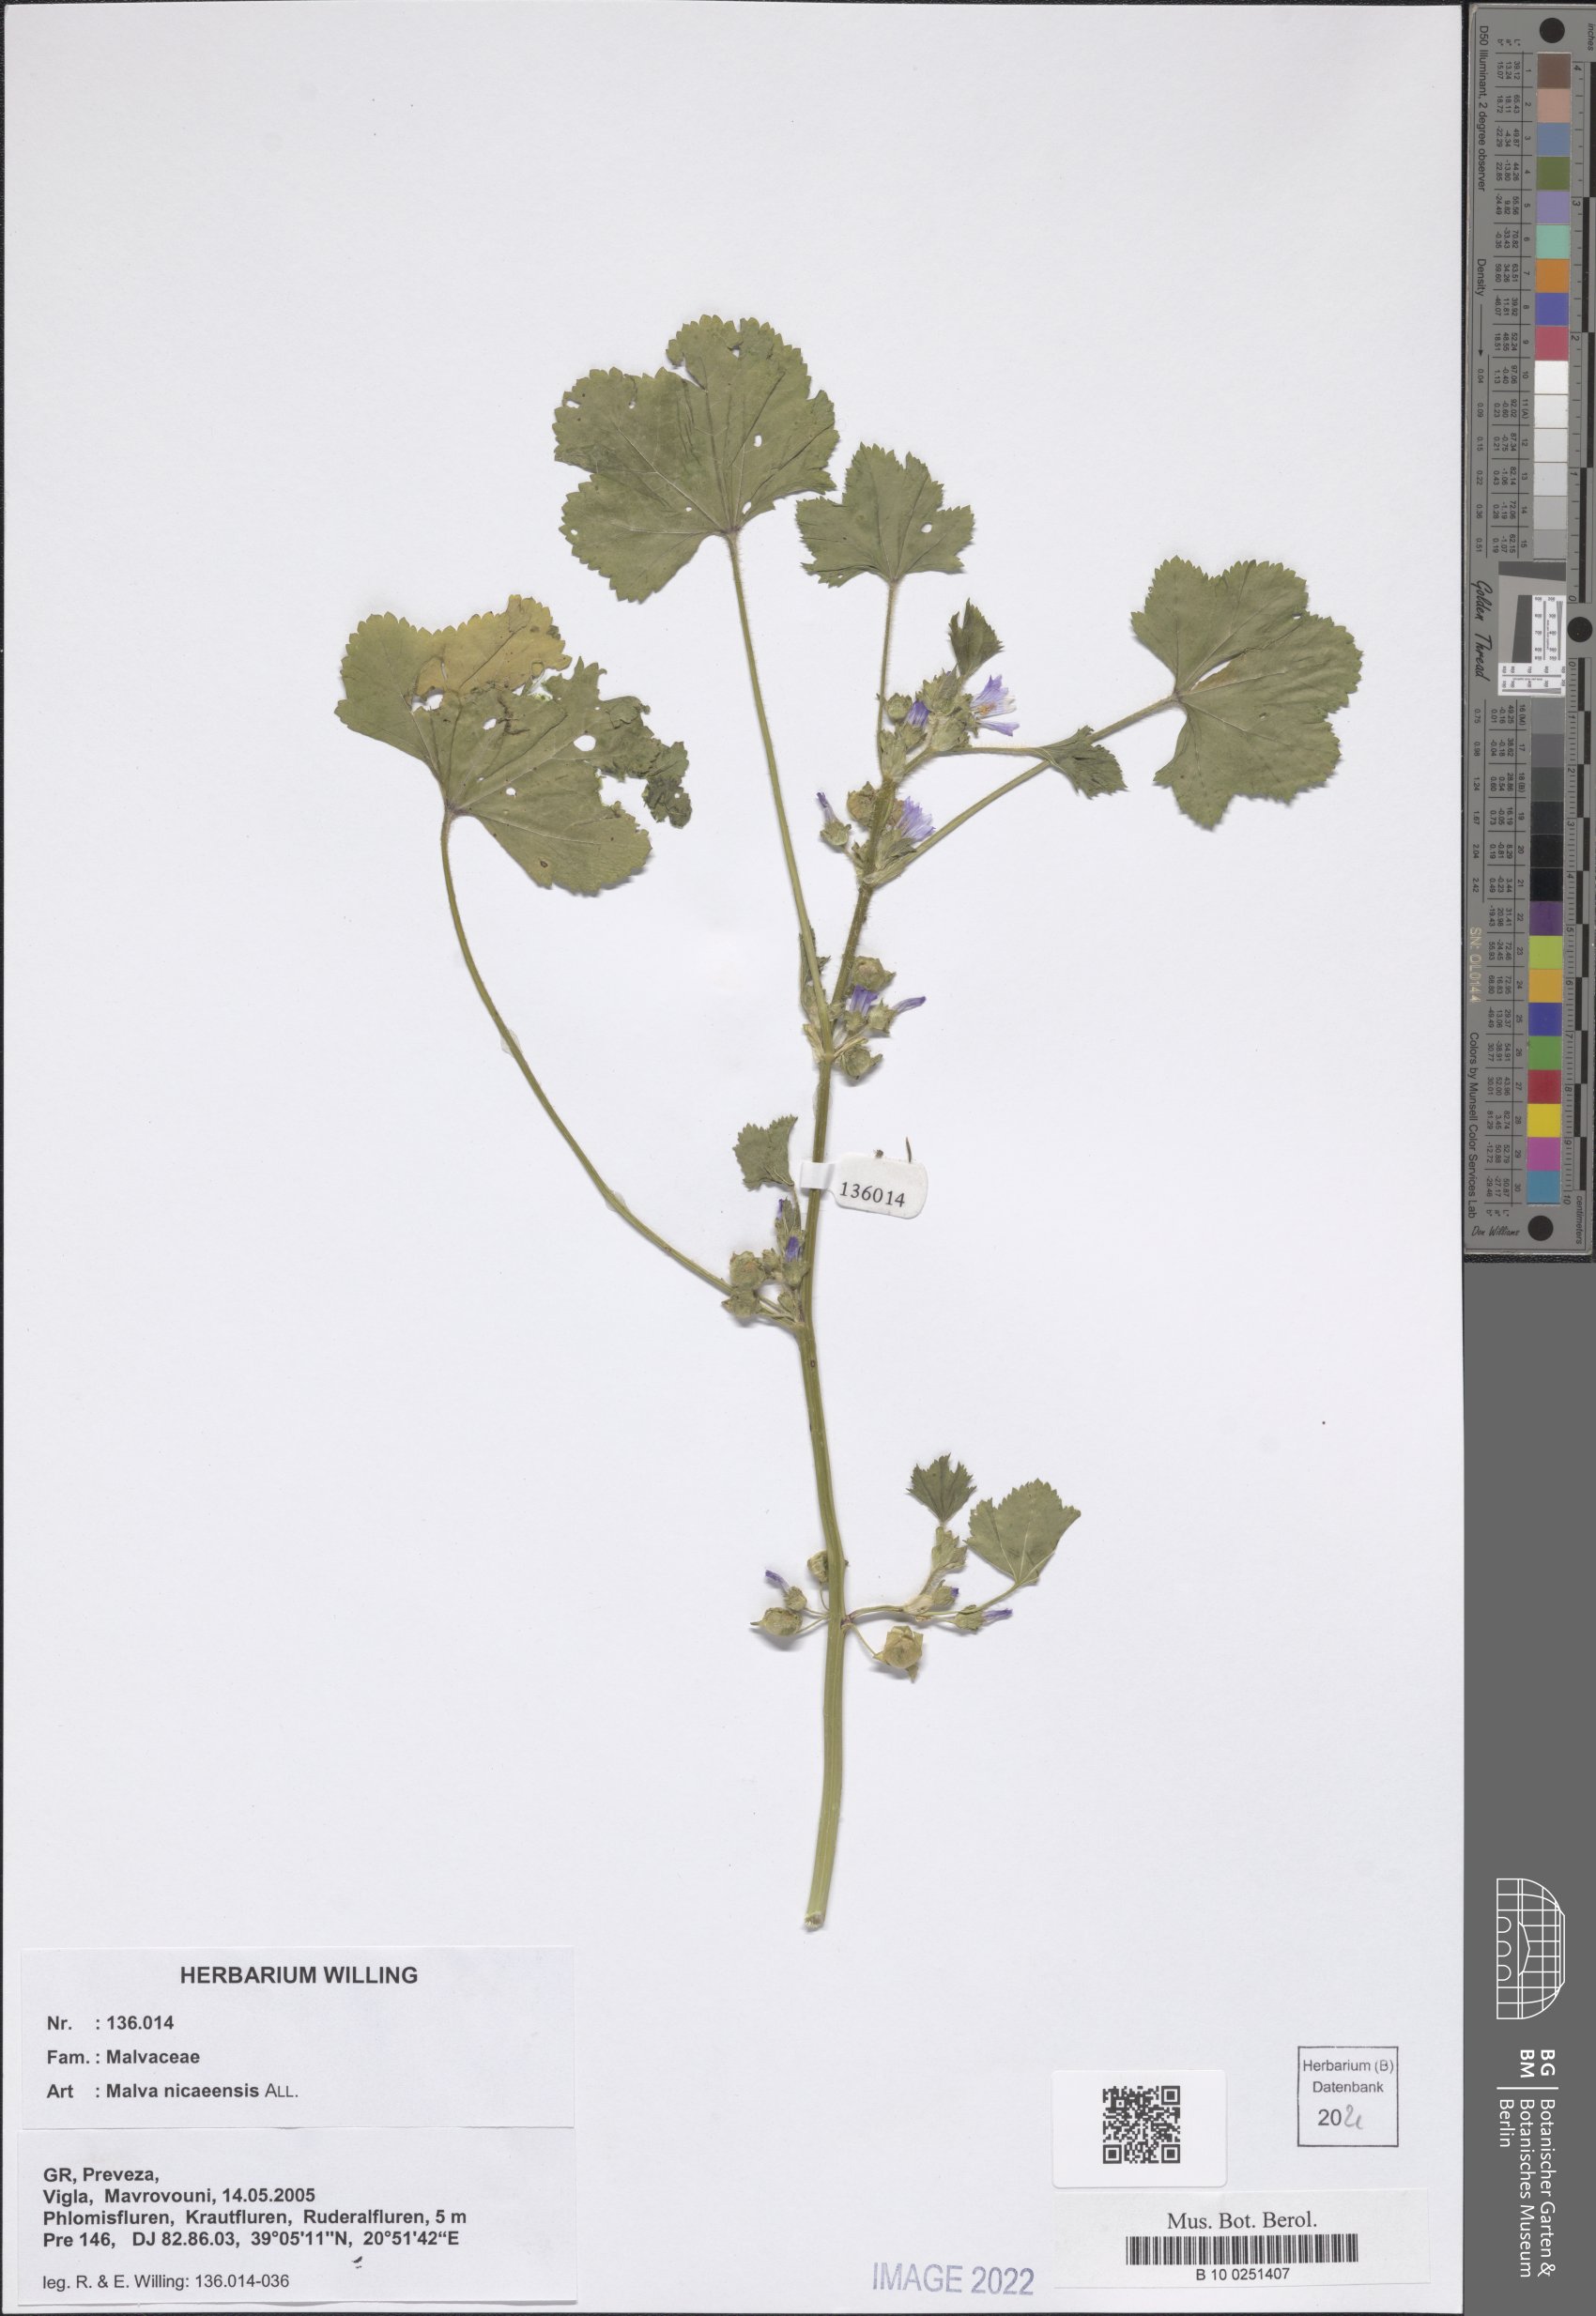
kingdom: Plantae
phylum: Tracheophyta
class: Magnoliopsida
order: Malvales
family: Malvaceae
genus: Malva
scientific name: Malva nicaeensis
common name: French mallow
